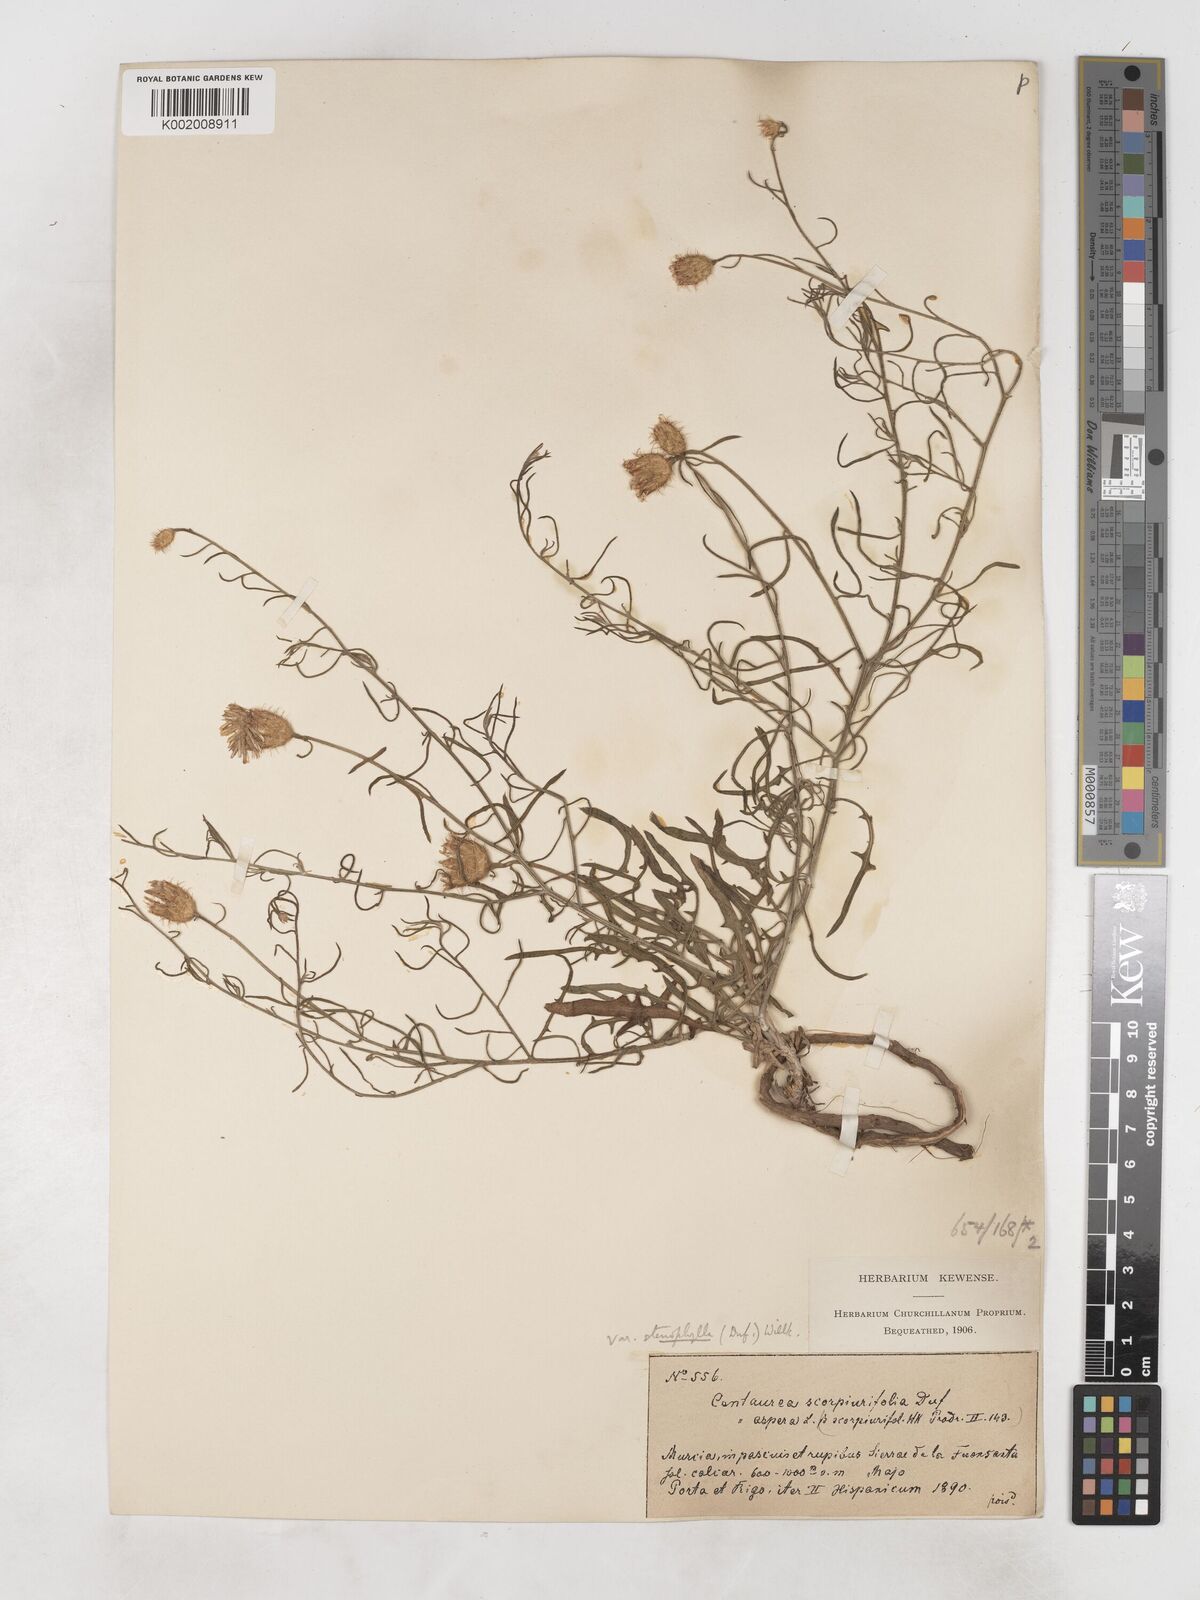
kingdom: Plantae
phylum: Tracheophyta
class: Magnoliopsida
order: Asterales
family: Asteraceae
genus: Centaurea
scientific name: Centaurea aspera
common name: Rough star-thistle
